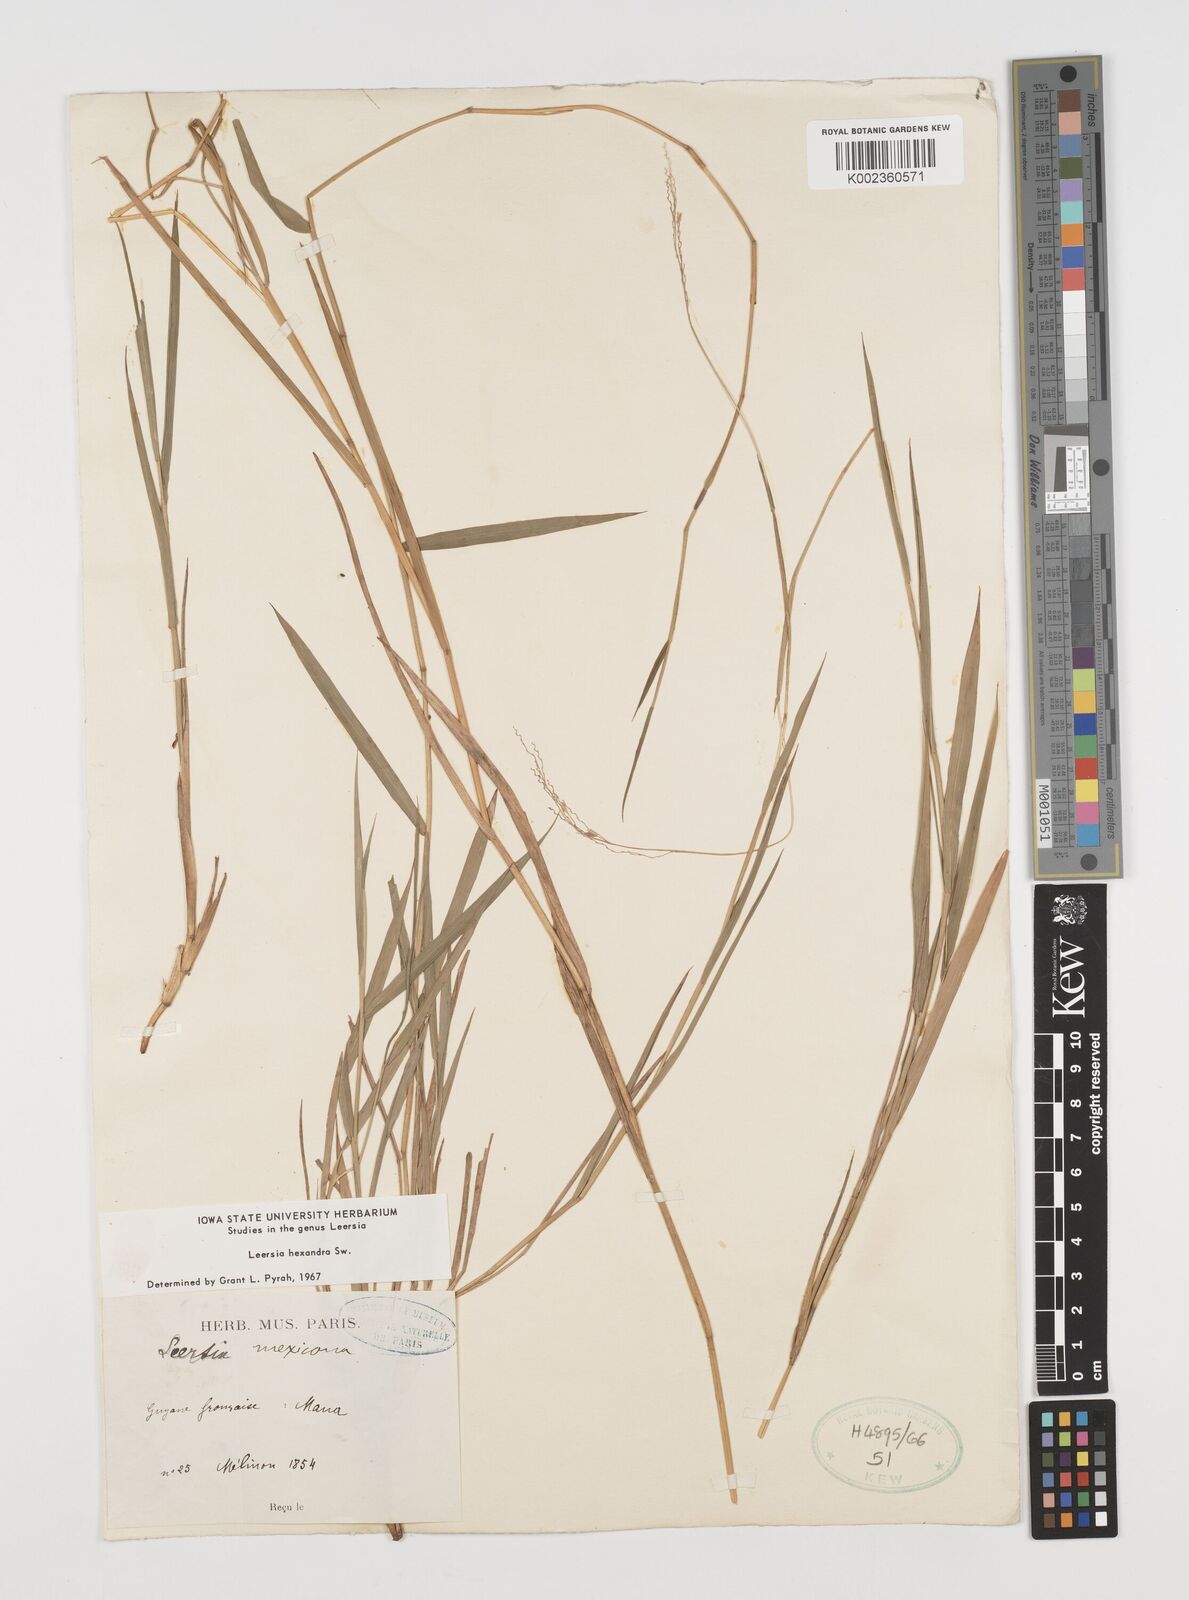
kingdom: Plantae
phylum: Tracheophyta
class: Liliopsida
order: Poales
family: Poaceae
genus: Leersia
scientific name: Leersia hexandra
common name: Southern cut grass
